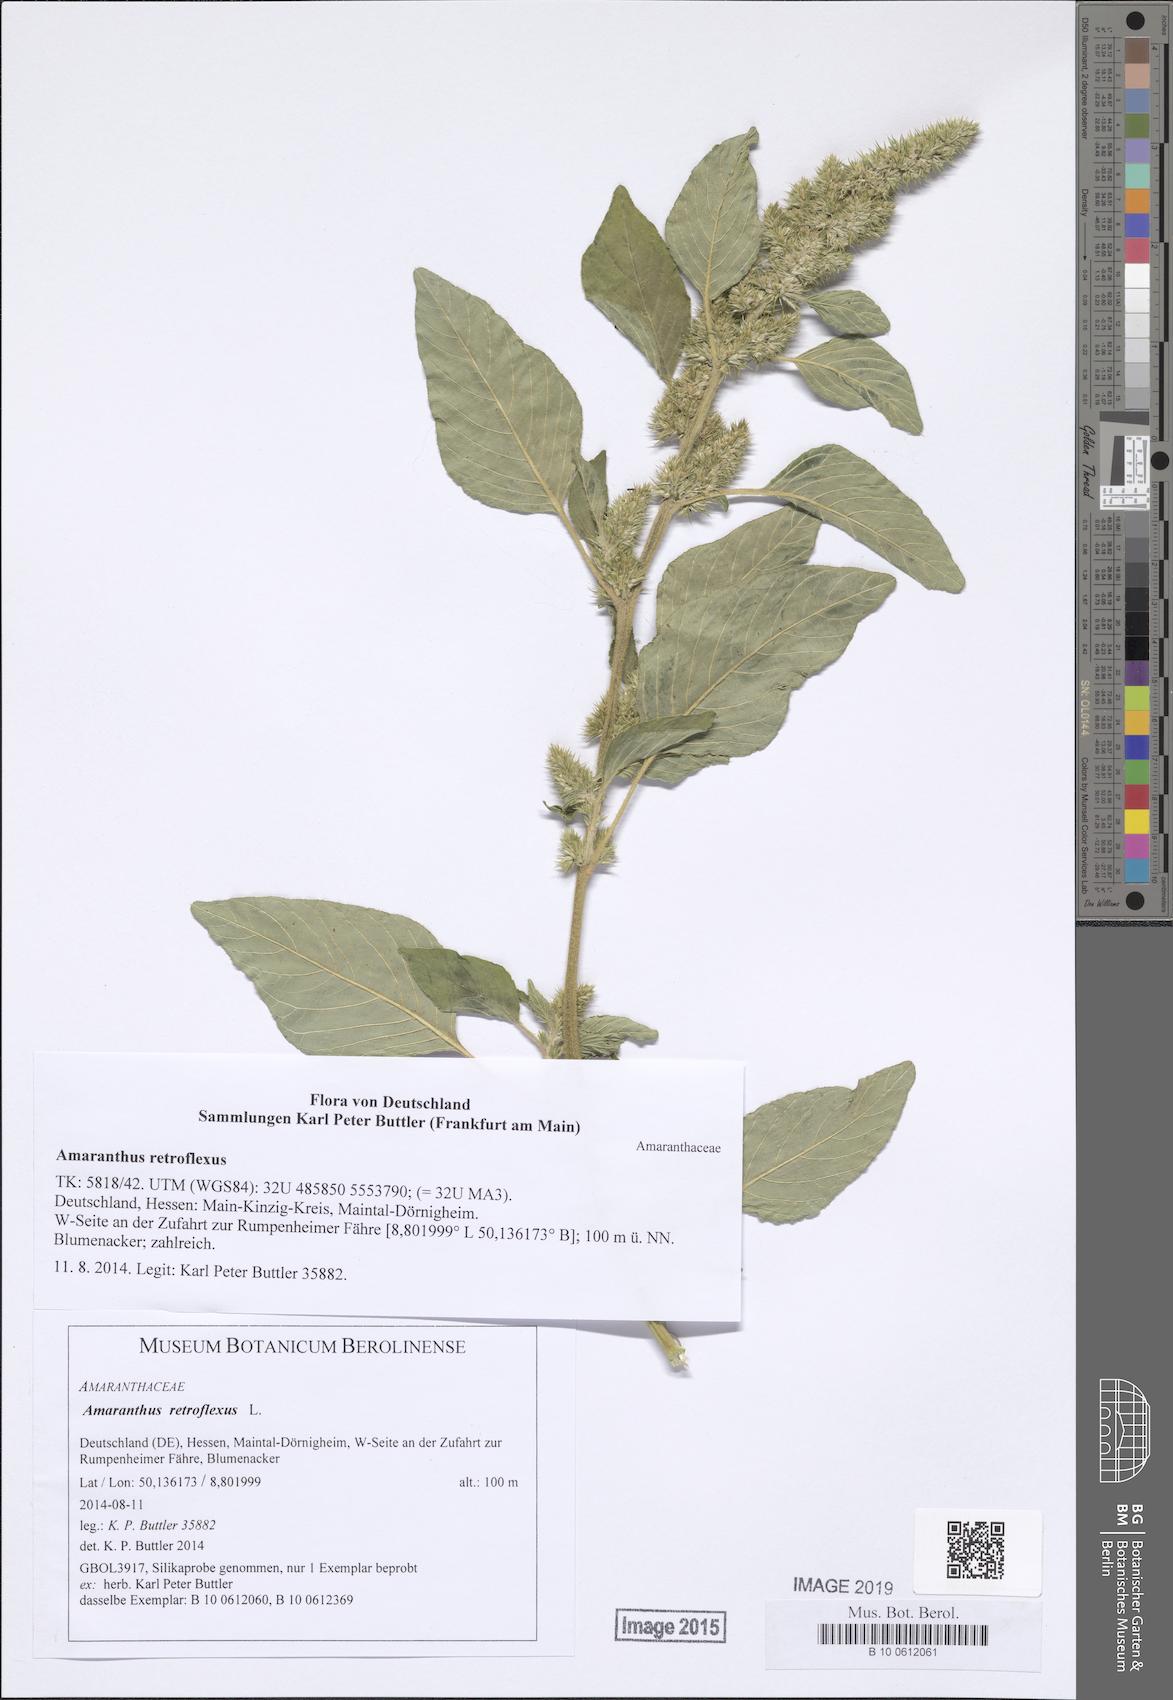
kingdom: Plantae
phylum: Tracheophyta
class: Magnoliopsida
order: Caryophyllales
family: Amaranthaceae
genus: Amaranthus
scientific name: Amaranthus retroflexus
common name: Redroot amaranth
